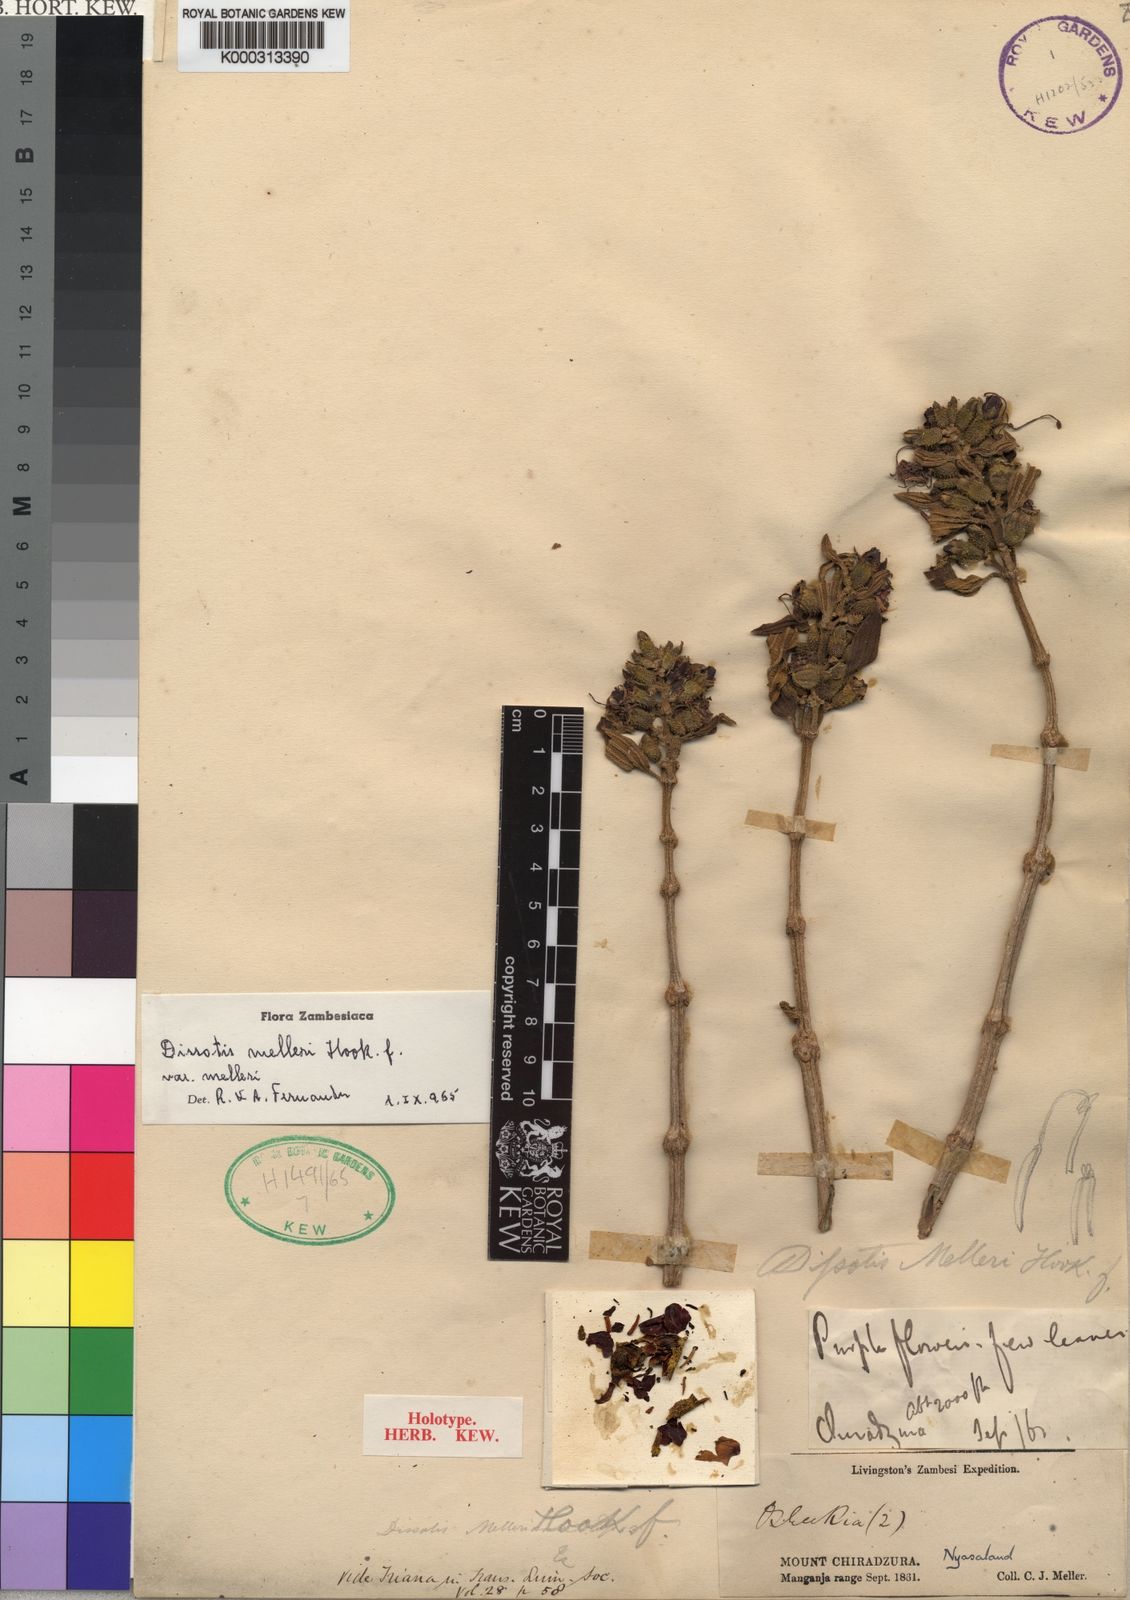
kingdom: Plantae
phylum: Tracheophyta
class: Magnoliopsida
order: Myrtales
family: Melastomataceae
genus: Dissotidendron
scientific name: Dissotidendron melleri
